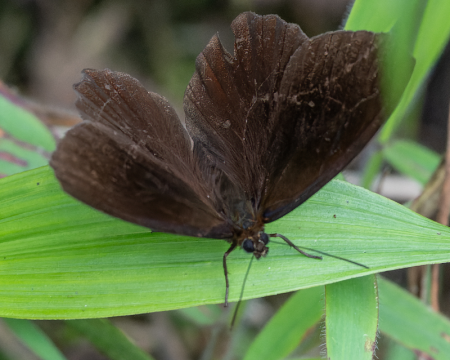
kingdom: Animalia
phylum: Arthropoda
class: Insecta
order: Lepidoptera
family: Nymphalidae
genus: Pedaliodes
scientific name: Pedaliodes manneja
